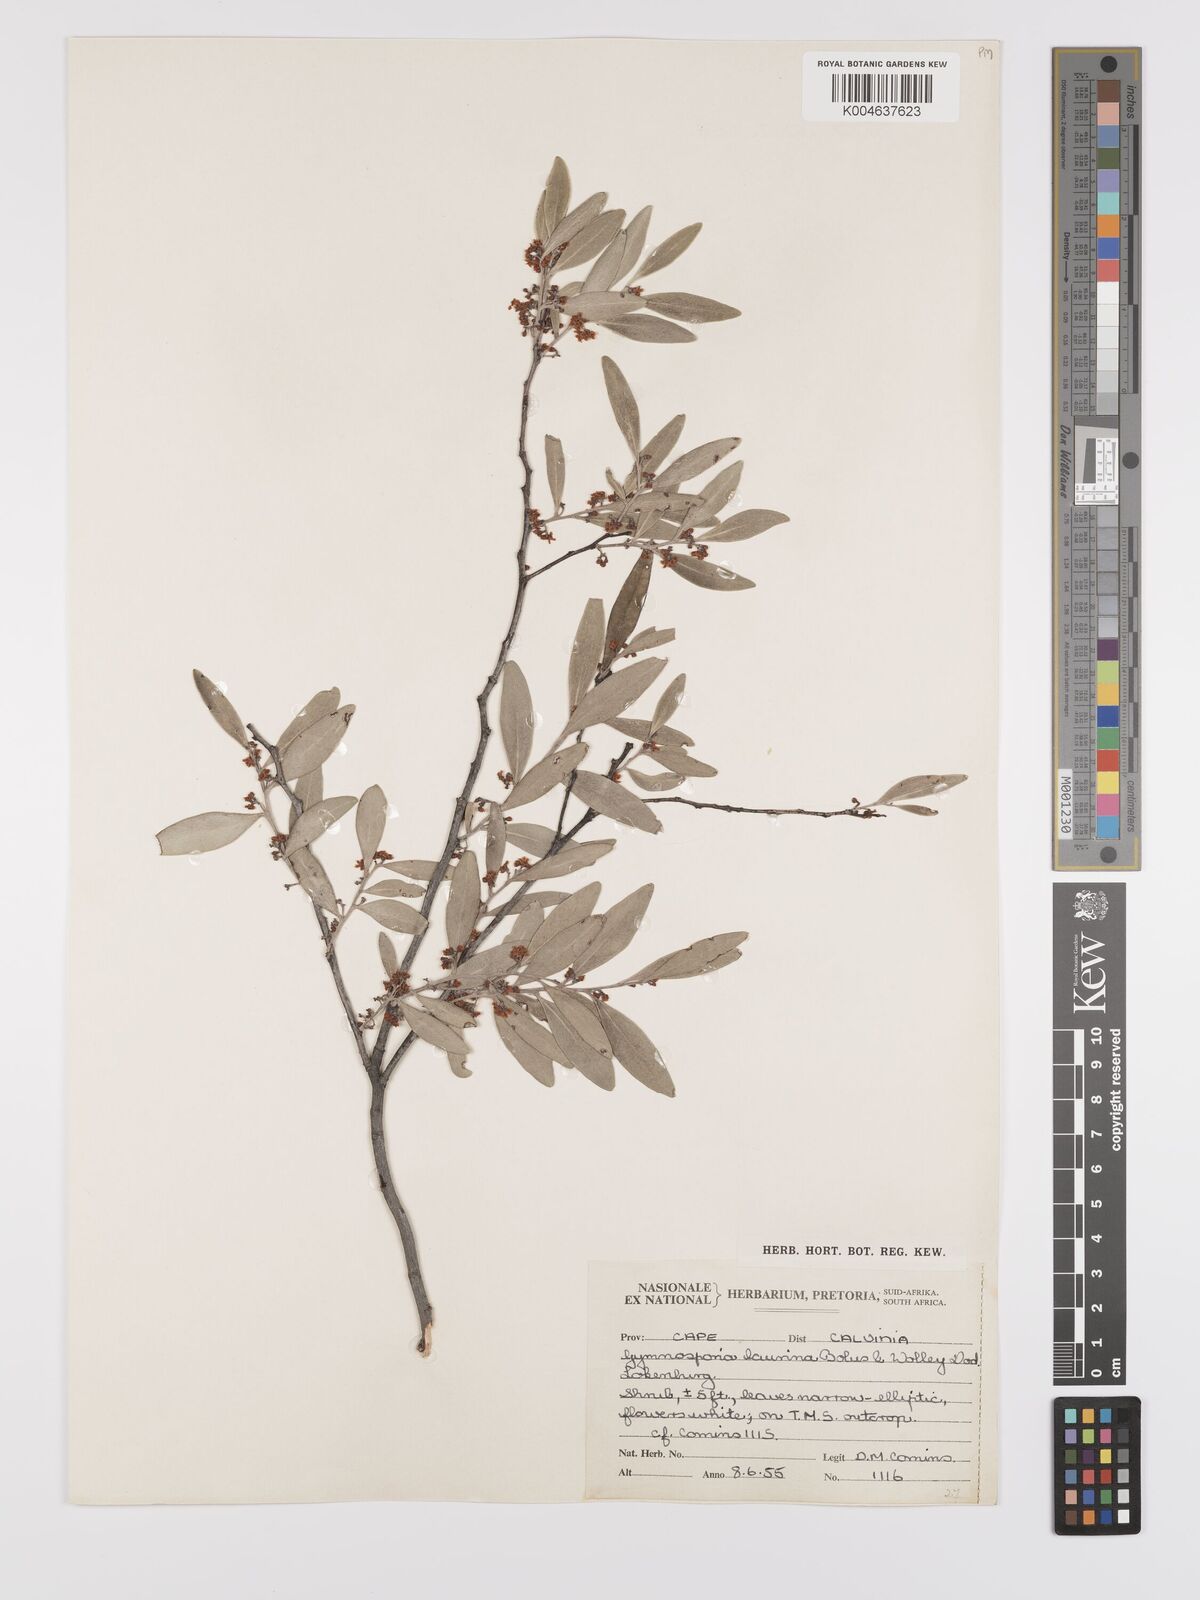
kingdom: Plantae
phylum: Tracheophyta
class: Magnoliopsida
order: Celastrales
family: Celastraceae
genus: Monteverdia
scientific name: Monteverdia laurina
